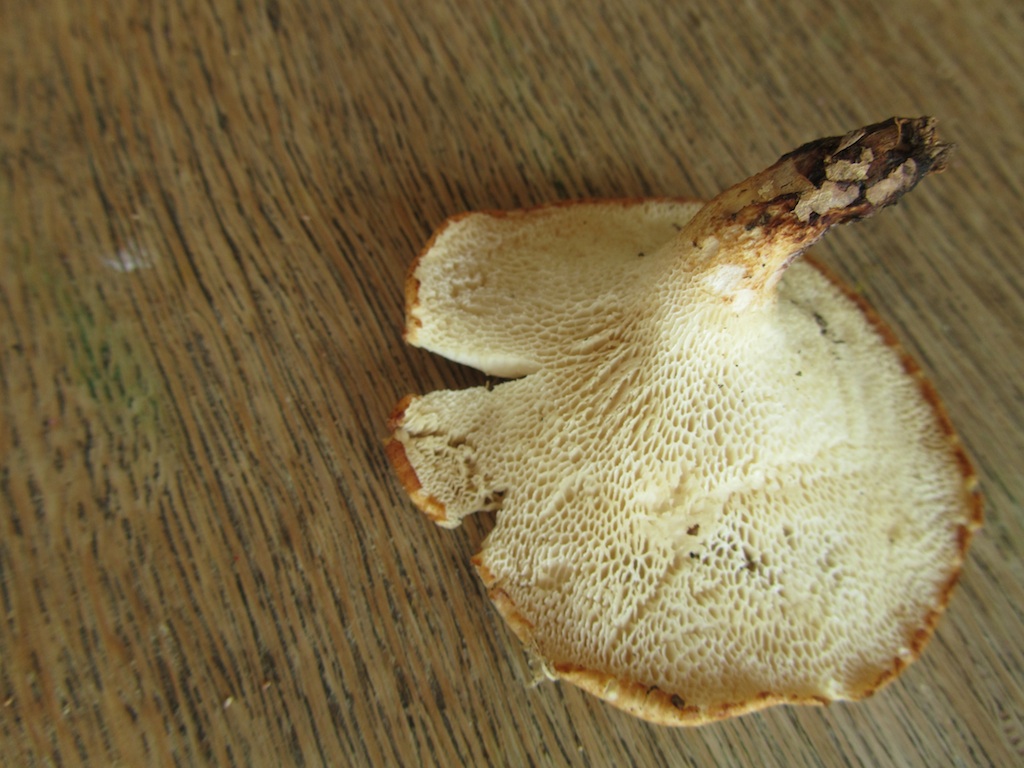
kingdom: Fungi
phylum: Basidiomycota
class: Agaricomycetes
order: Polyporales
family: Polyporaceae
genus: Polyporus
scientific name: Polyporus tuberaster
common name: knoldet stilkporesvamp
